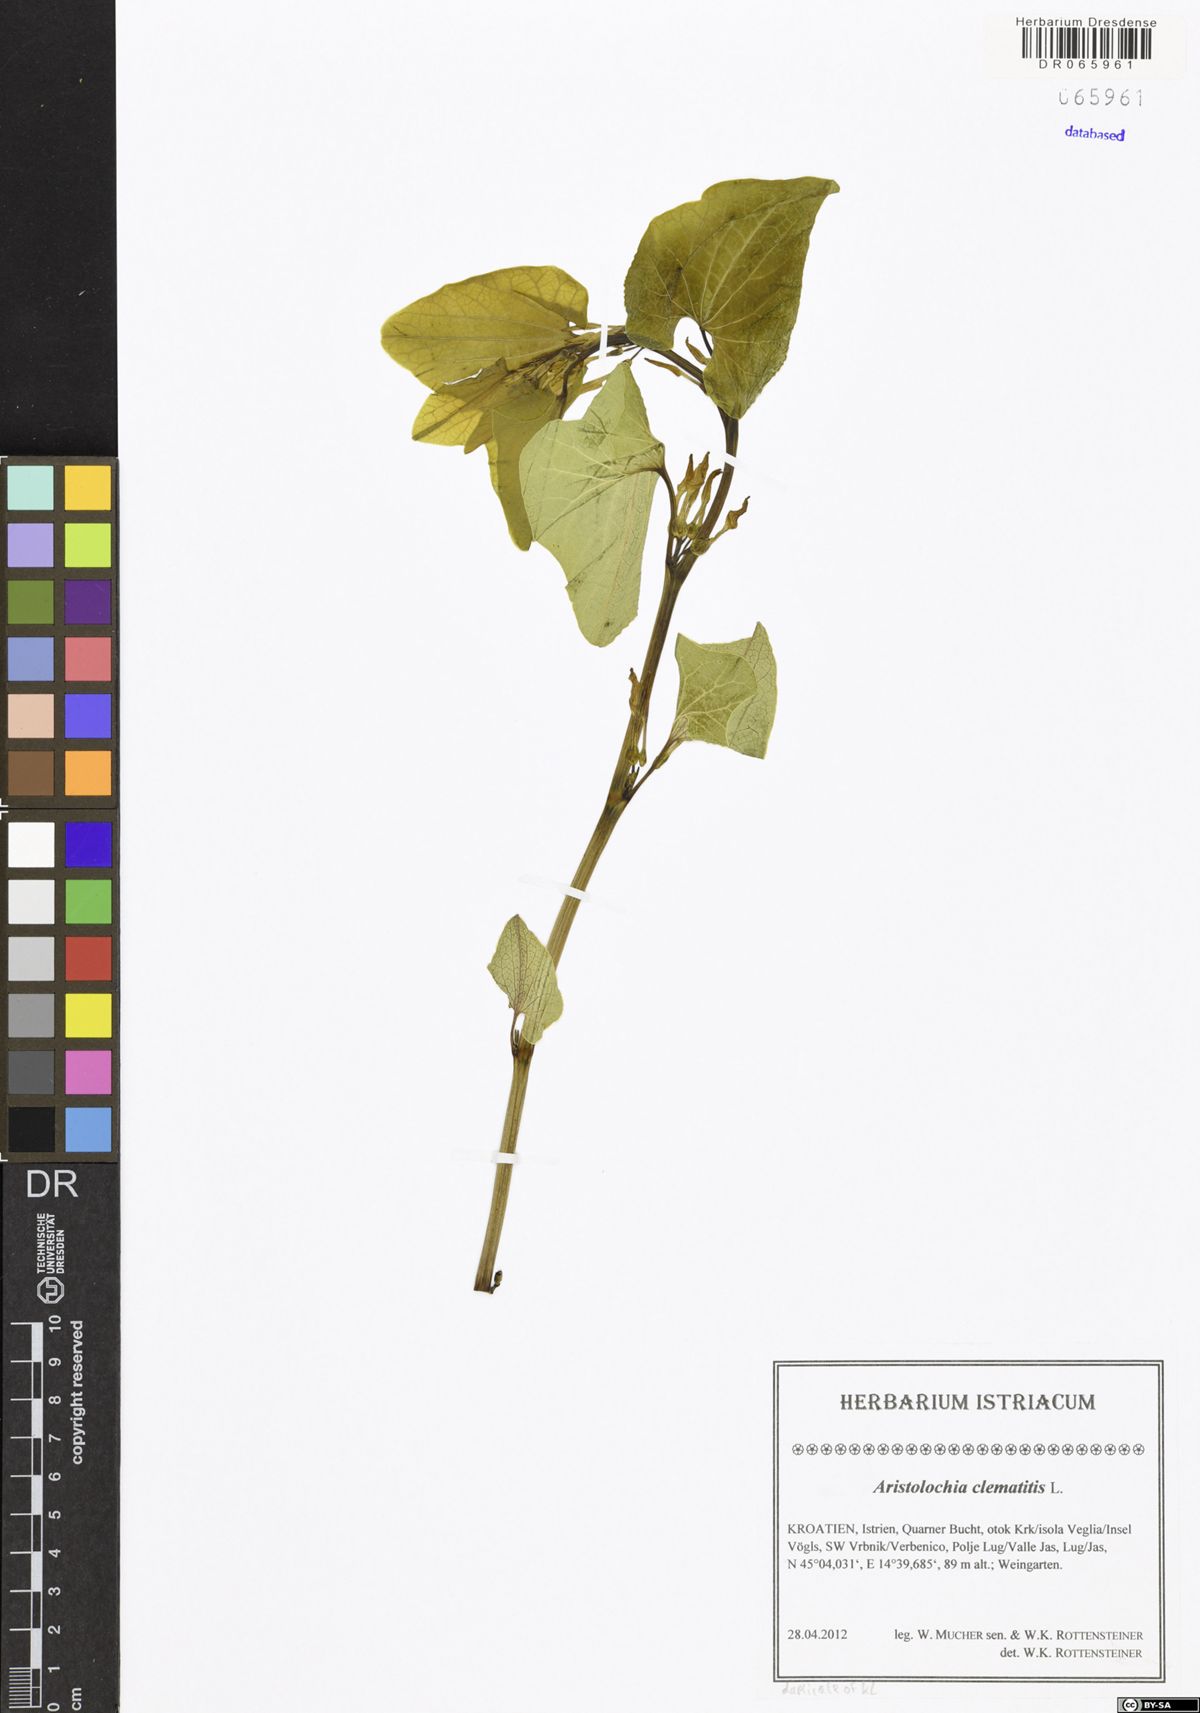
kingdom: Plantae
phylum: Tracheophyta
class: Magnoliopsida
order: Piperales
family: Aristolochiaceae
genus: Aristolochia
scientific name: Aristolochia clematitis
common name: Birthwort
